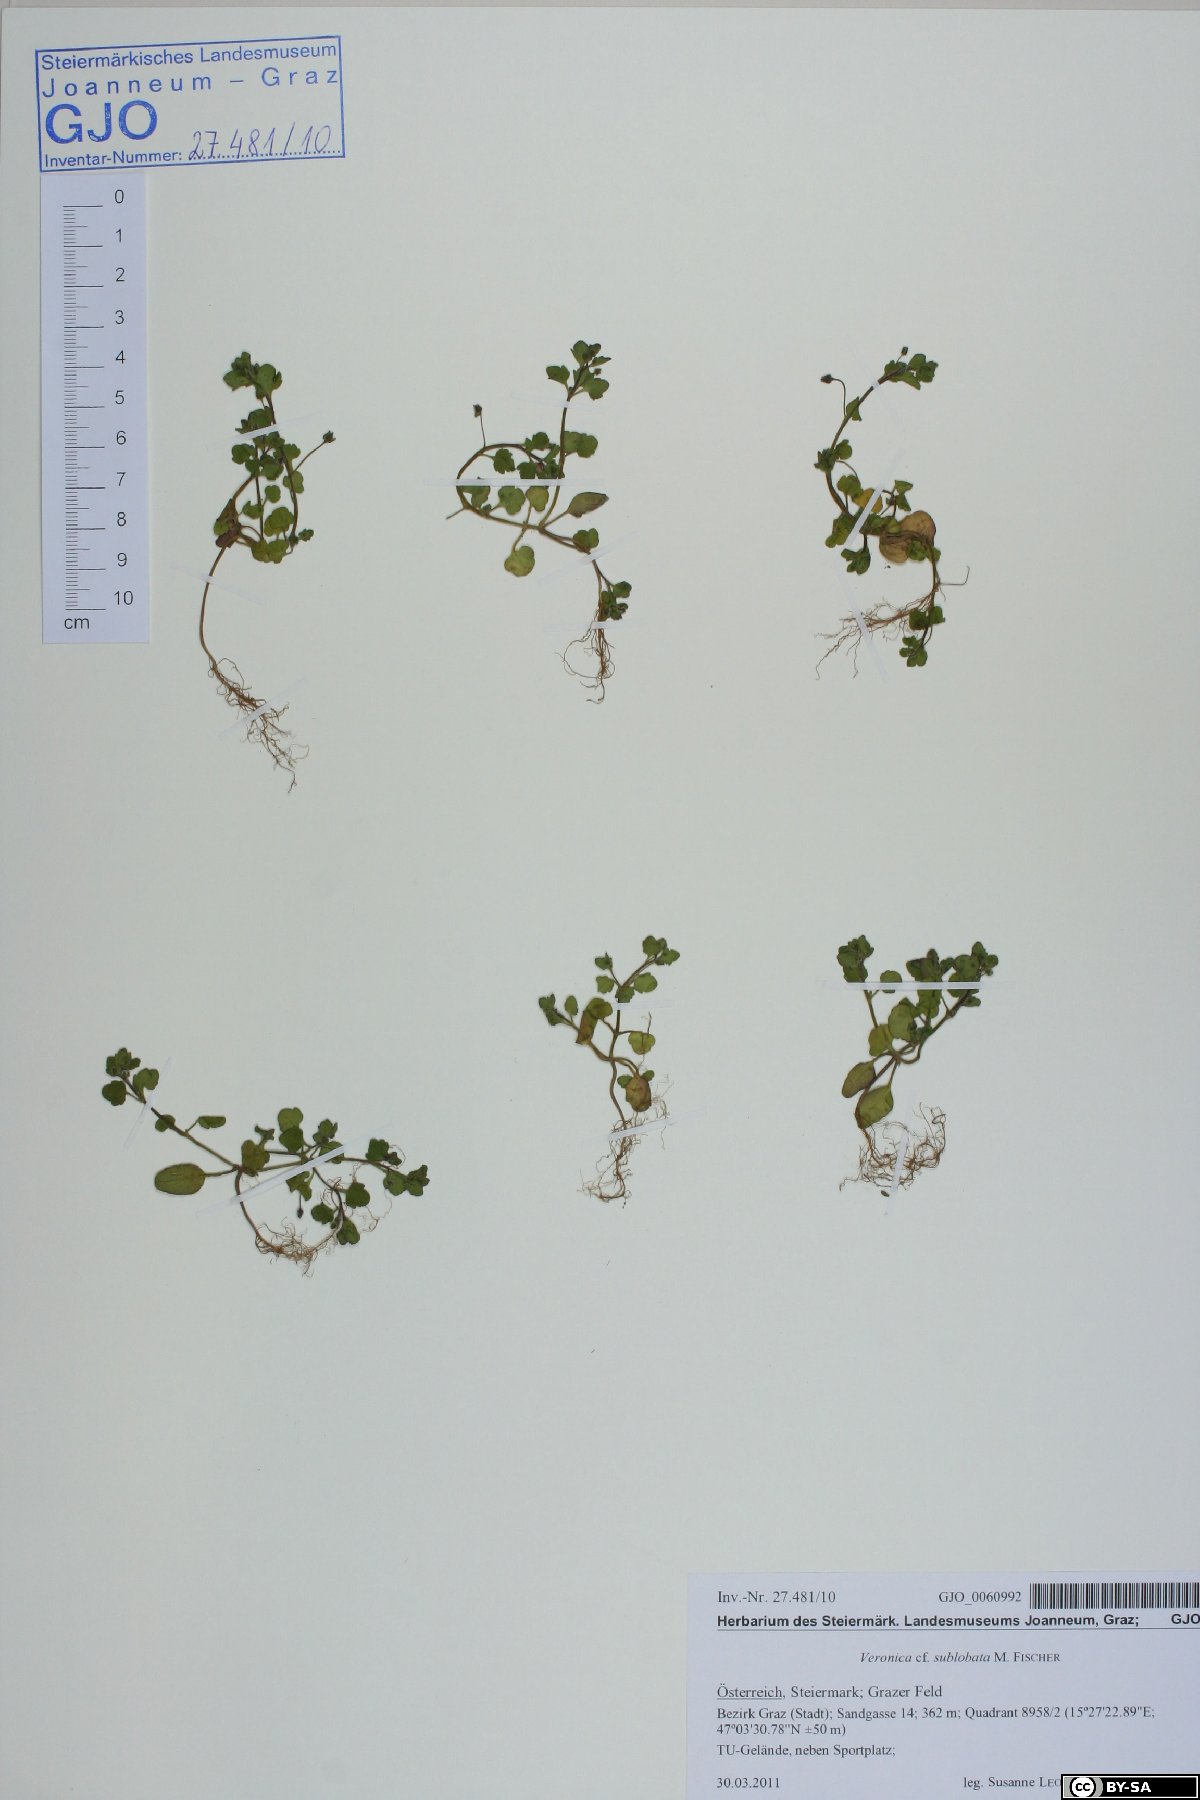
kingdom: Plantae
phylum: Tracheophyta
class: Magnoliopsida
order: Lamiales
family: Plantaginaceae
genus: Veronica
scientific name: Veronica sublobata
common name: False ivy-leaved speedwell
